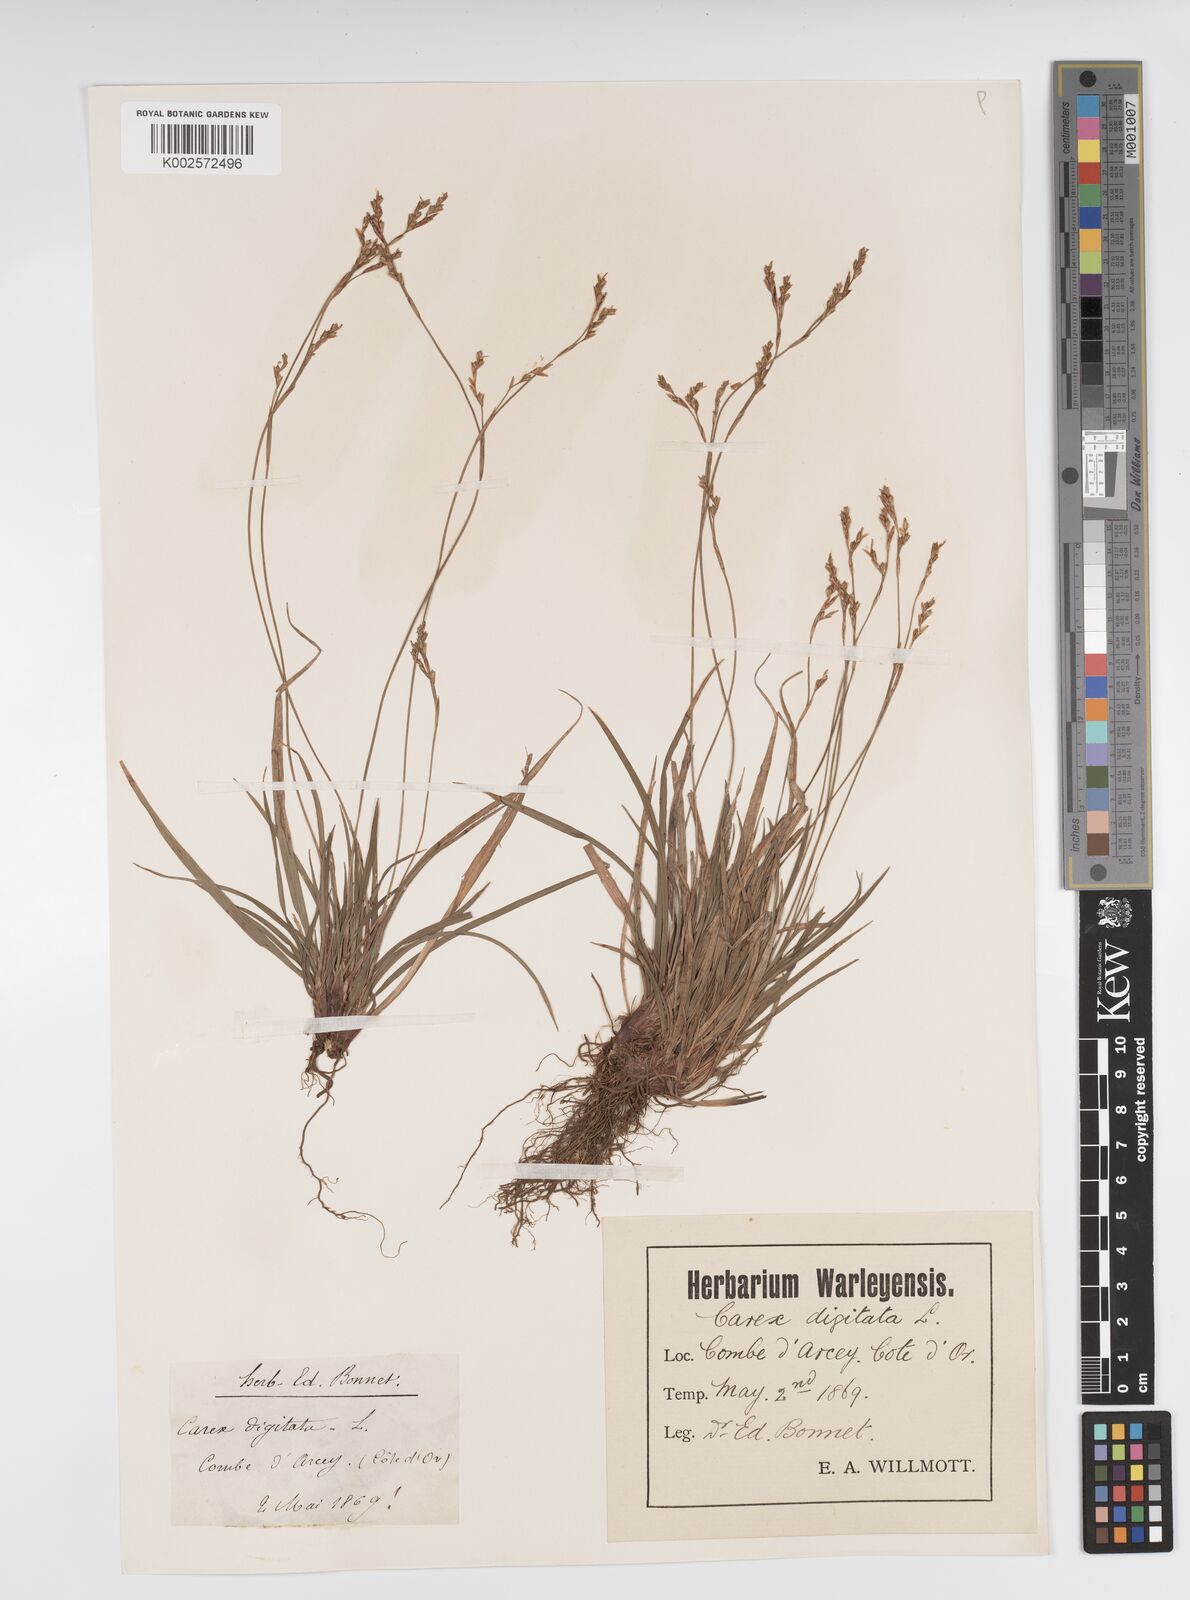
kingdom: Plantae
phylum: Tracheophyta
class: Liliopsida
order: Poales
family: Cyperaceae
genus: Carex
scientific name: Carex digitata
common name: Fingered sedge
